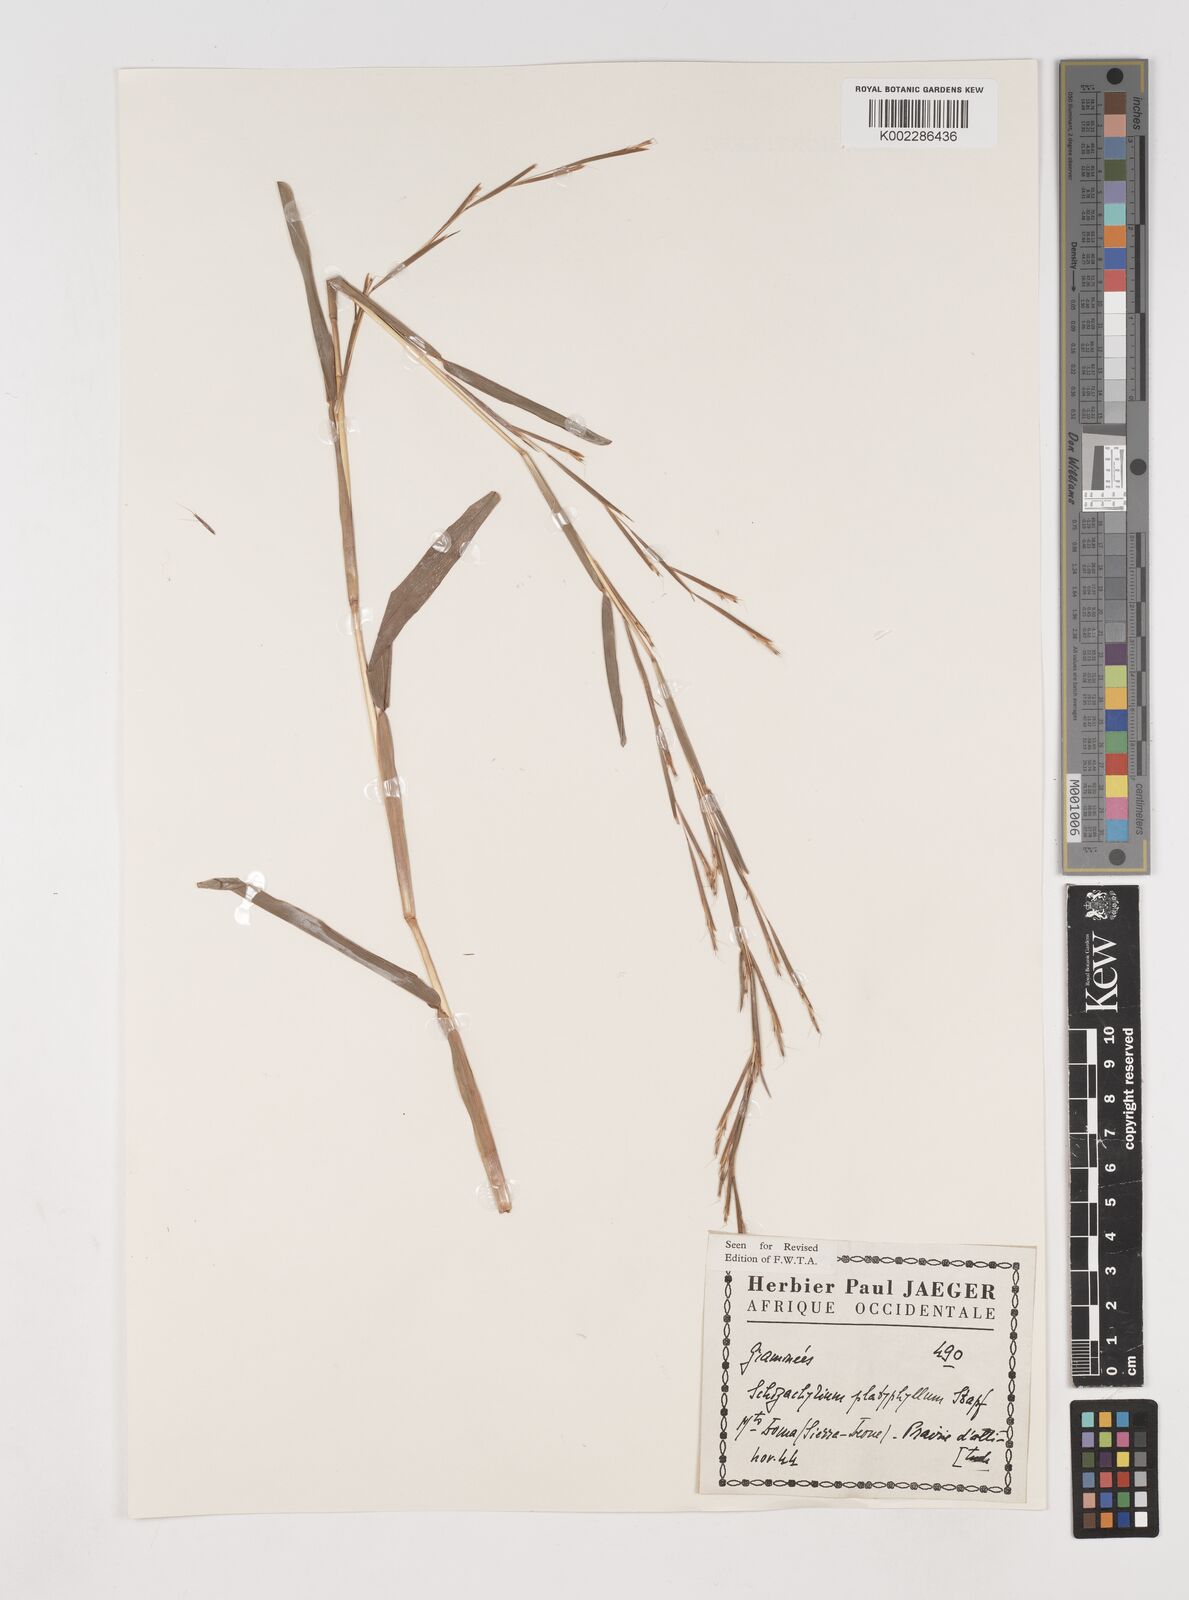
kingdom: Plantae
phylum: Tracheophyta
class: Liliopsida
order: Poales
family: Poaceae
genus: Schizachyrium
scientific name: Schizachyrium platyphyllum
